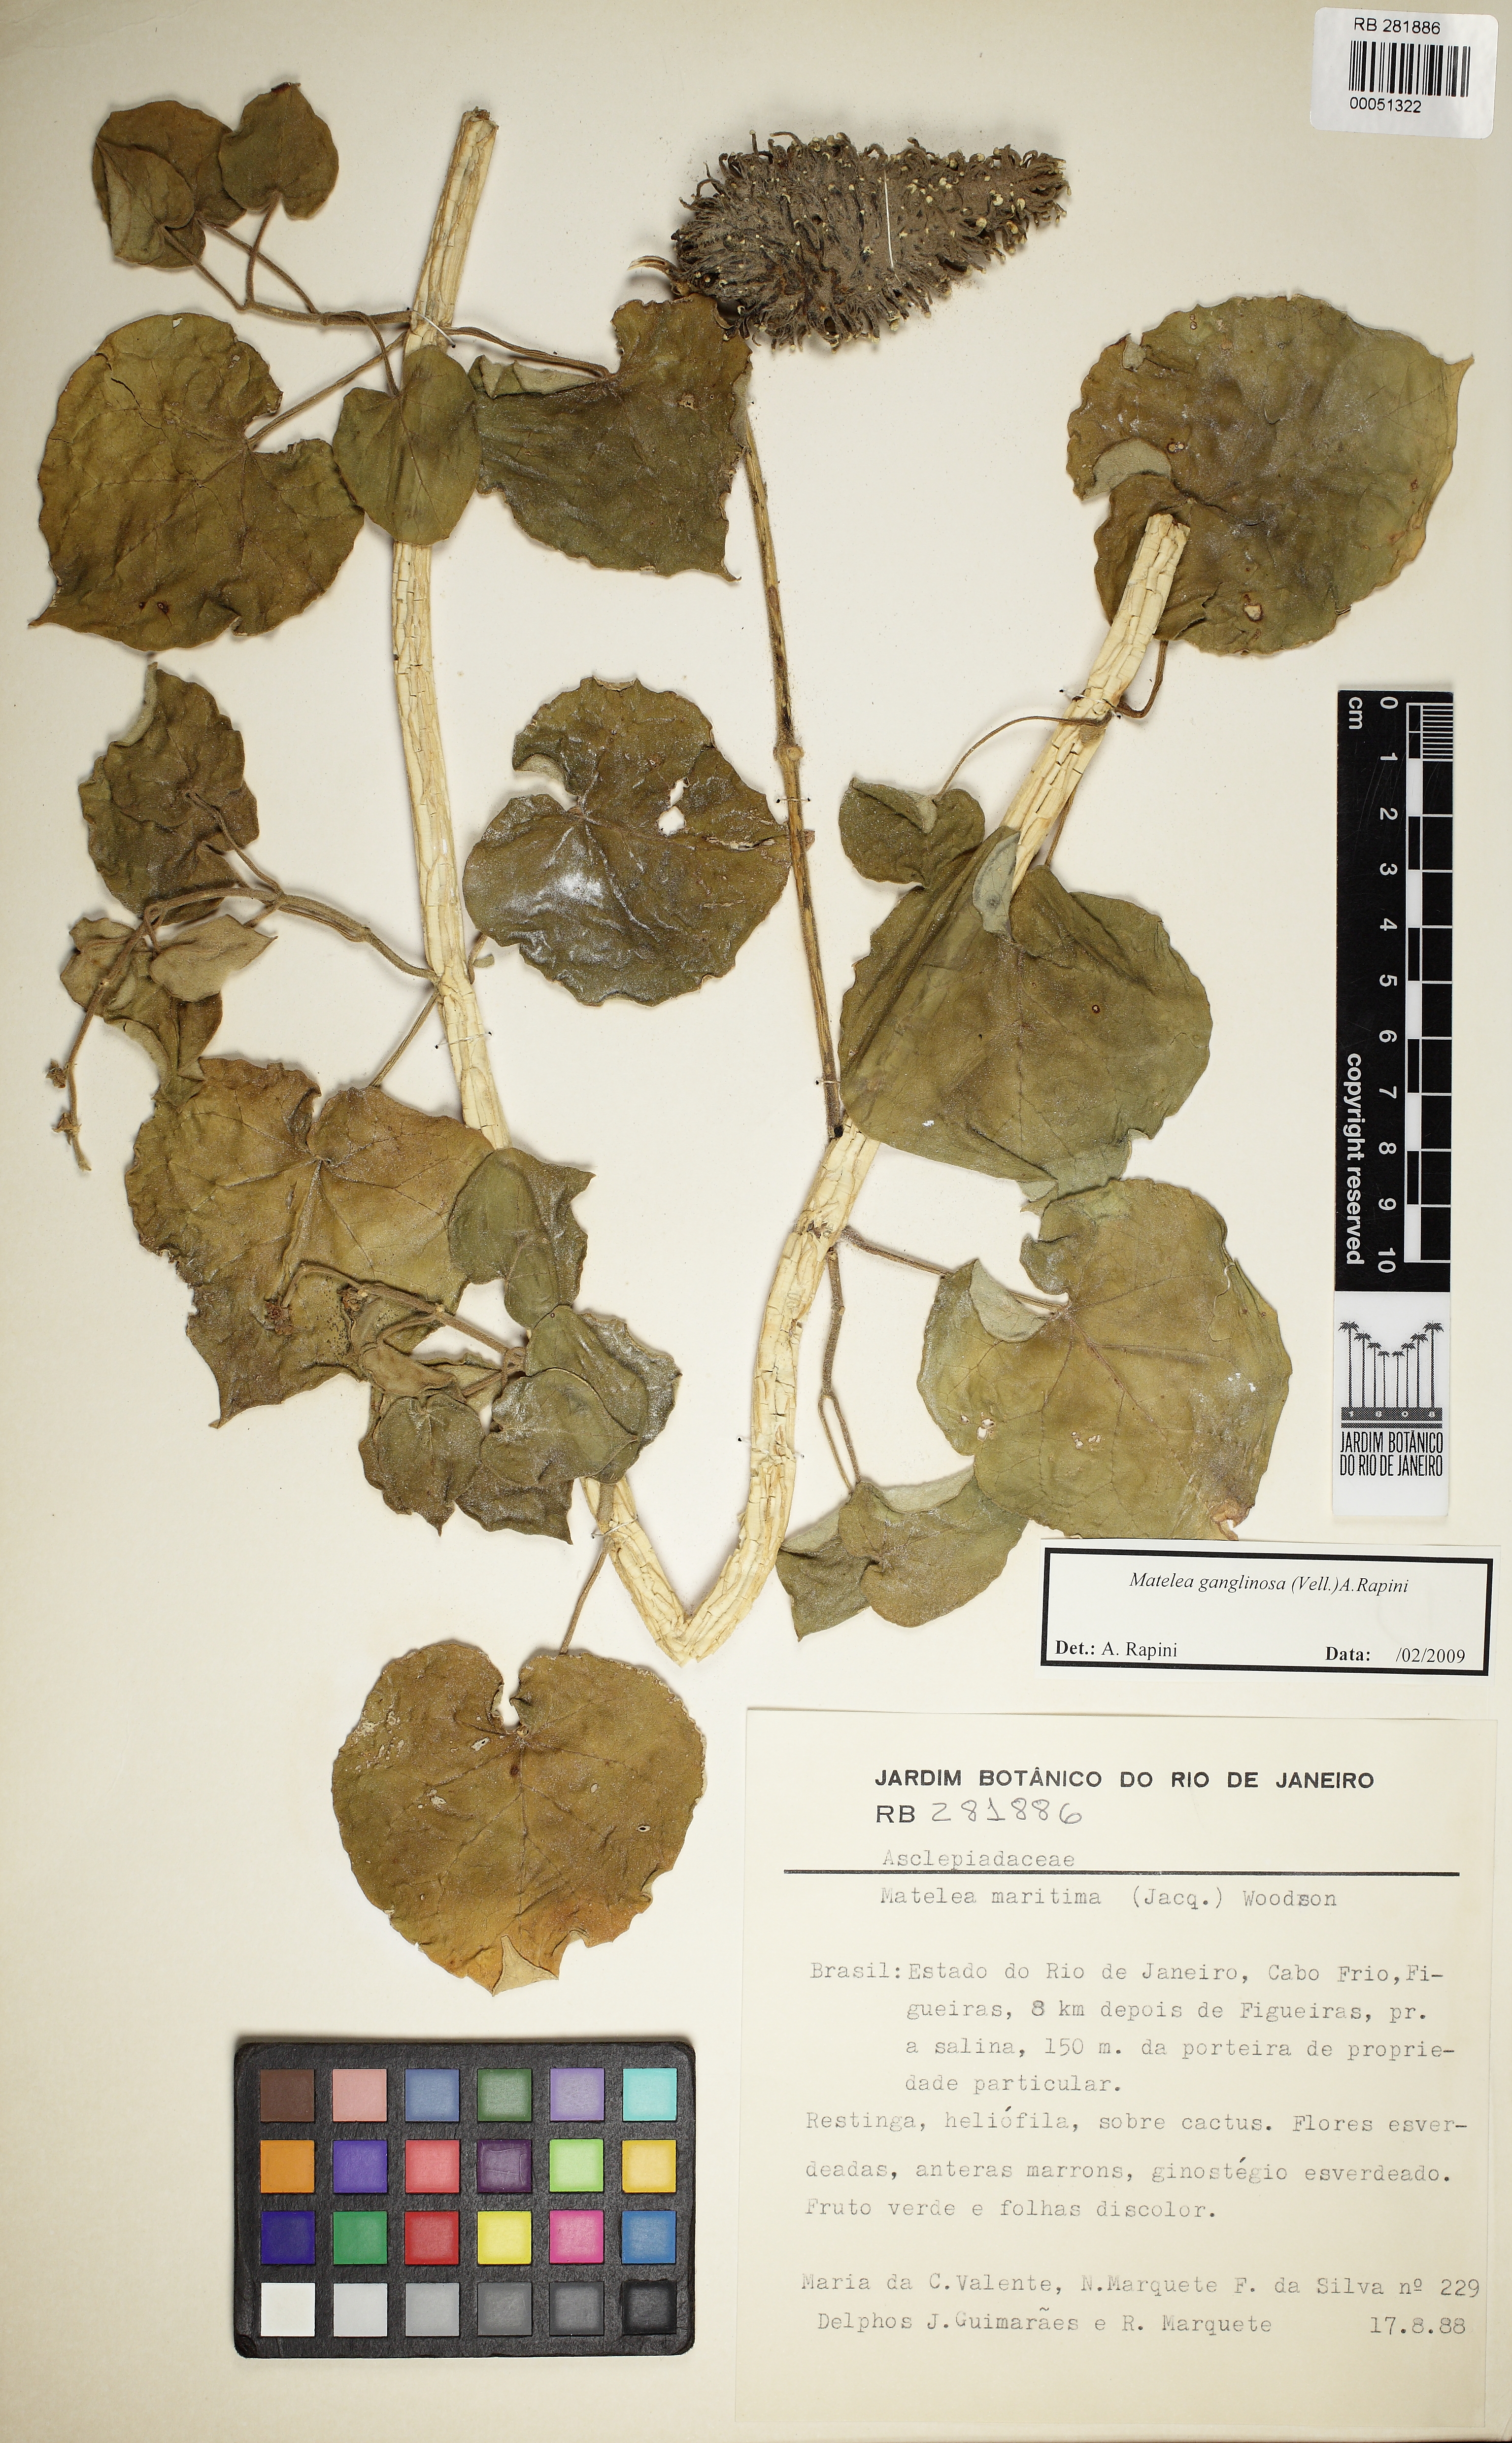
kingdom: Plantae
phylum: Tracheophyta
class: Magnoliopsida
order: Gentianales
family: Apocynaceae
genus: Ibatia
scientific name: Ibatia ganglinosa
